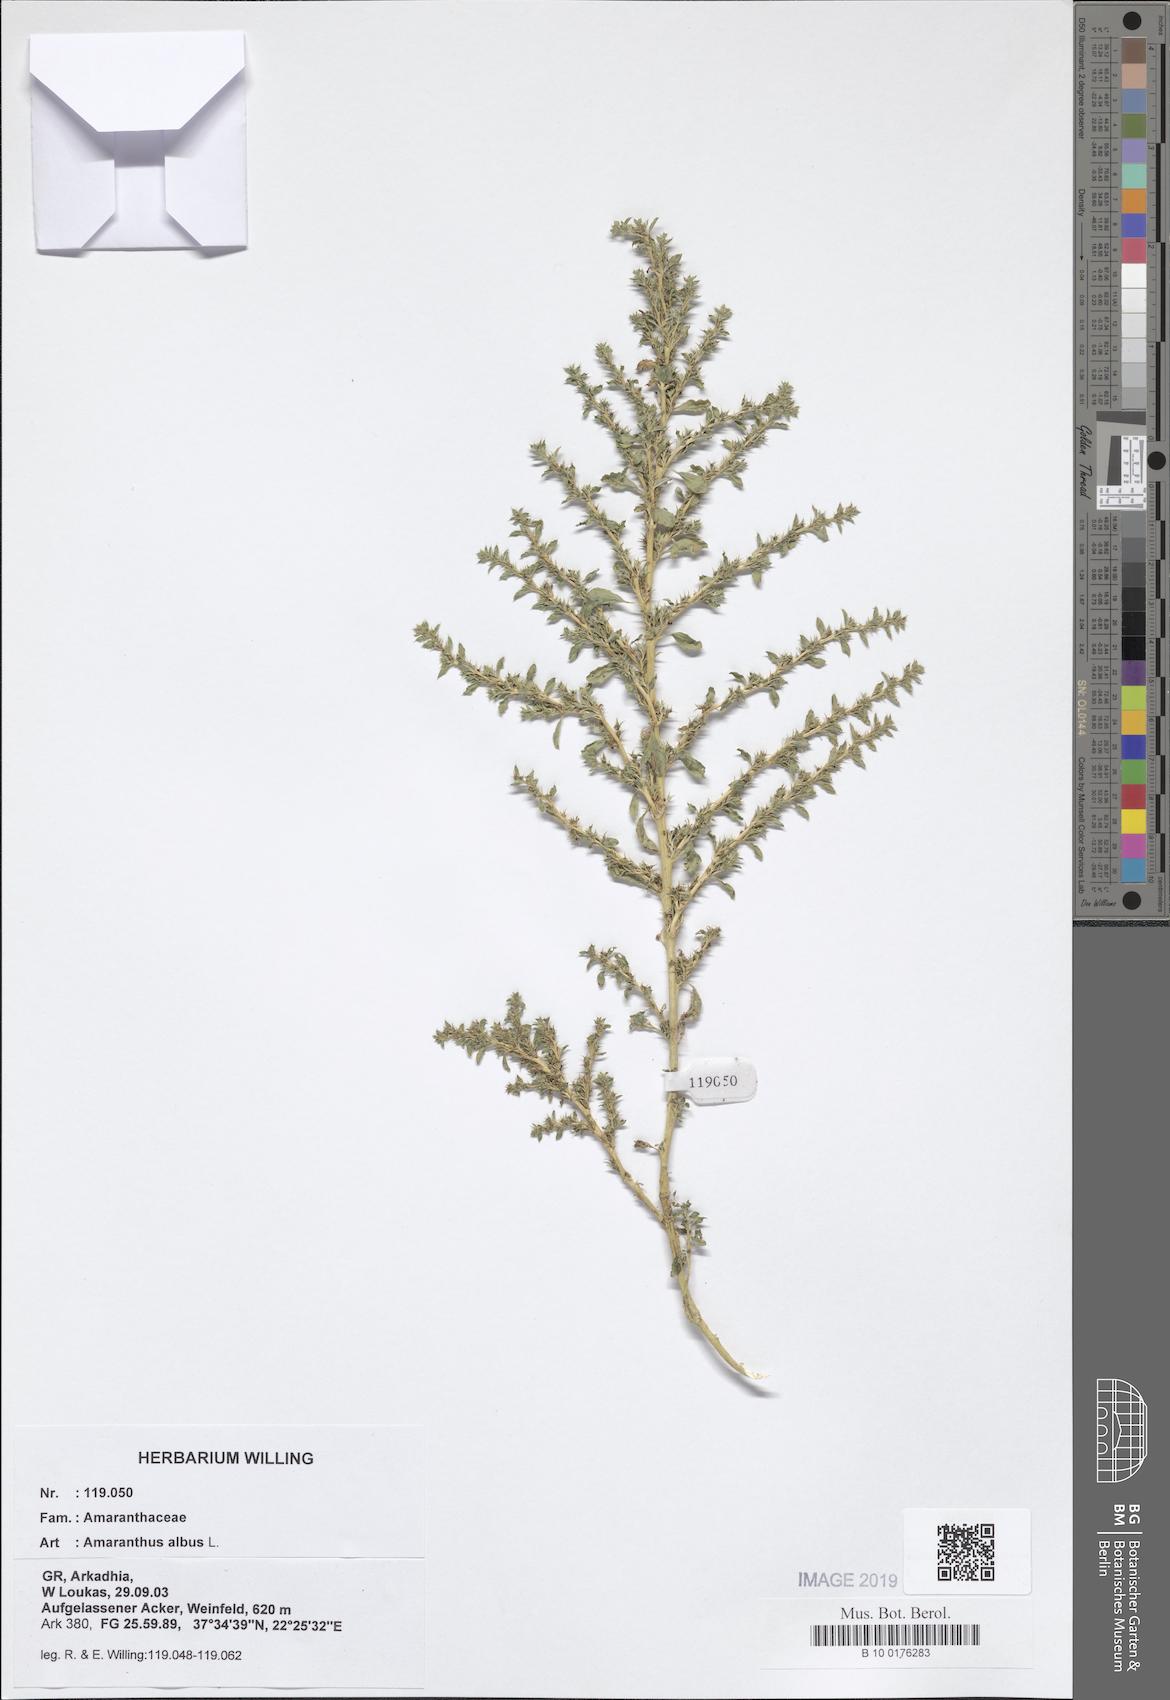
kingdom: Plantae
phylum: Tracheophyta
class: Magnoliopsida
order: Caryophyllales
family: Amaranthaceae
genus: Amaranthus
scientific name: Amaranthus albus
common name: White pigweed
